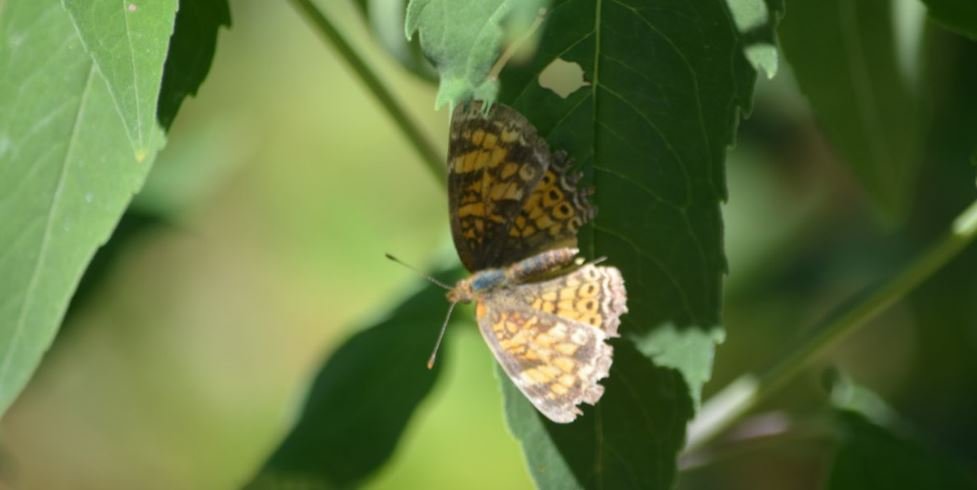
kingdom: Animalia
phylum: Arthropoda
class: Insecta
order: Lepidoptera
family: Nymphalidae
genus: Phyciodes
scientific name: Phyciodes
